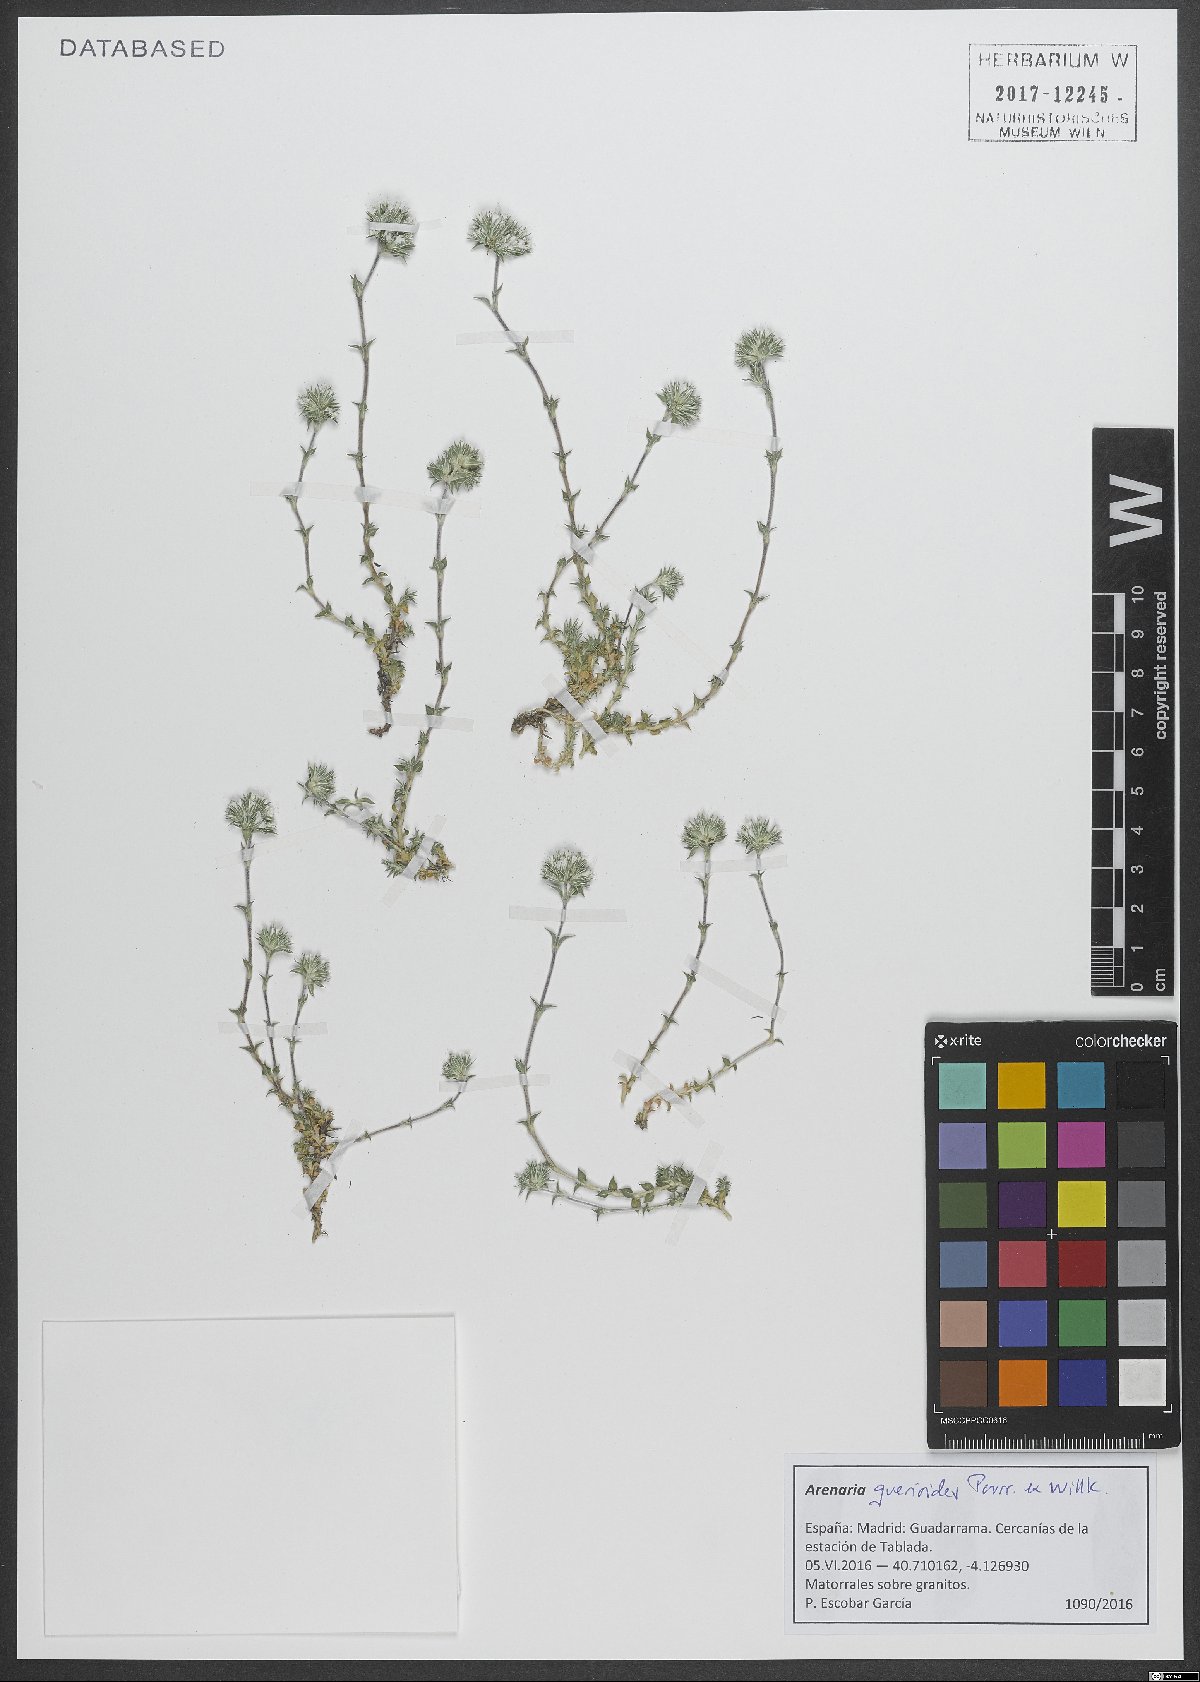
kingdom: Plantae
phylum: Tracheophyta
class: Magnoliopsida
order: Caryophyllales
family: Caryophyllaceae
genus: Arenaria
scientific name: Arenaria querioides
